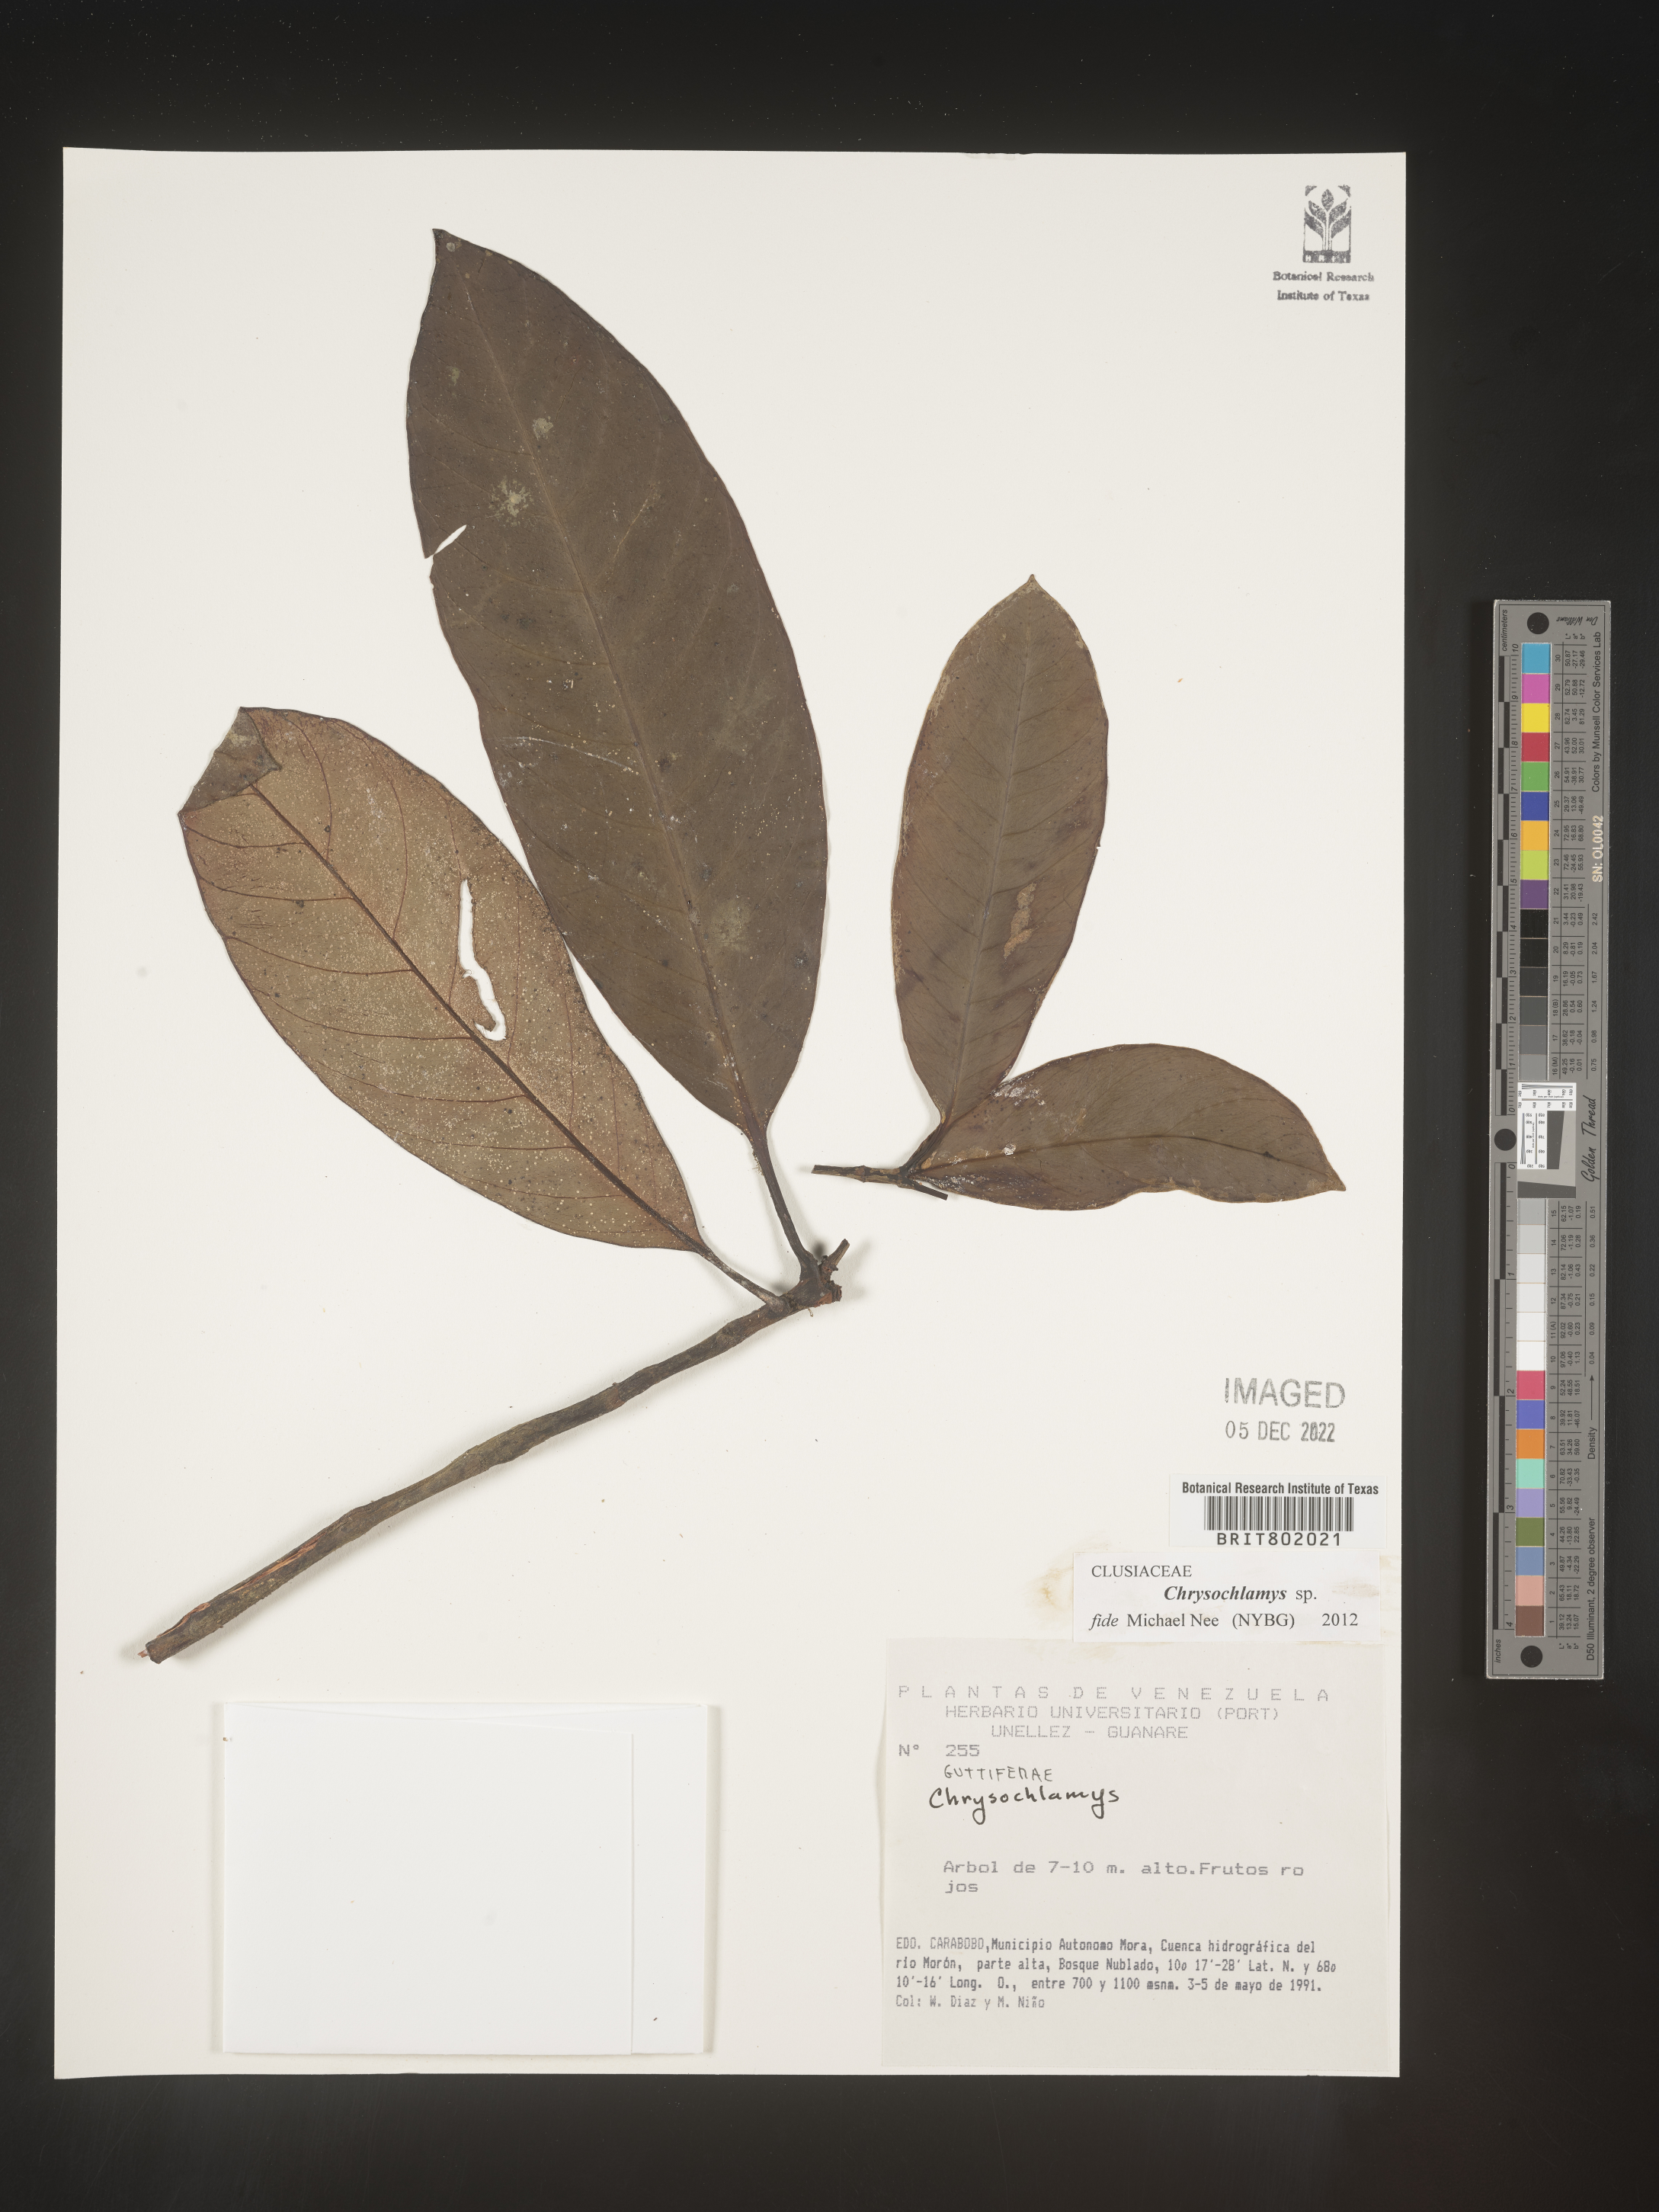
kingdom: Plantae
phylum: Tracheophyta
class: Magnoliopsida
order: Malpighiales
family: Clusiaceae
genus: Chrysochlamys
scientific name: Chrysochlamys
